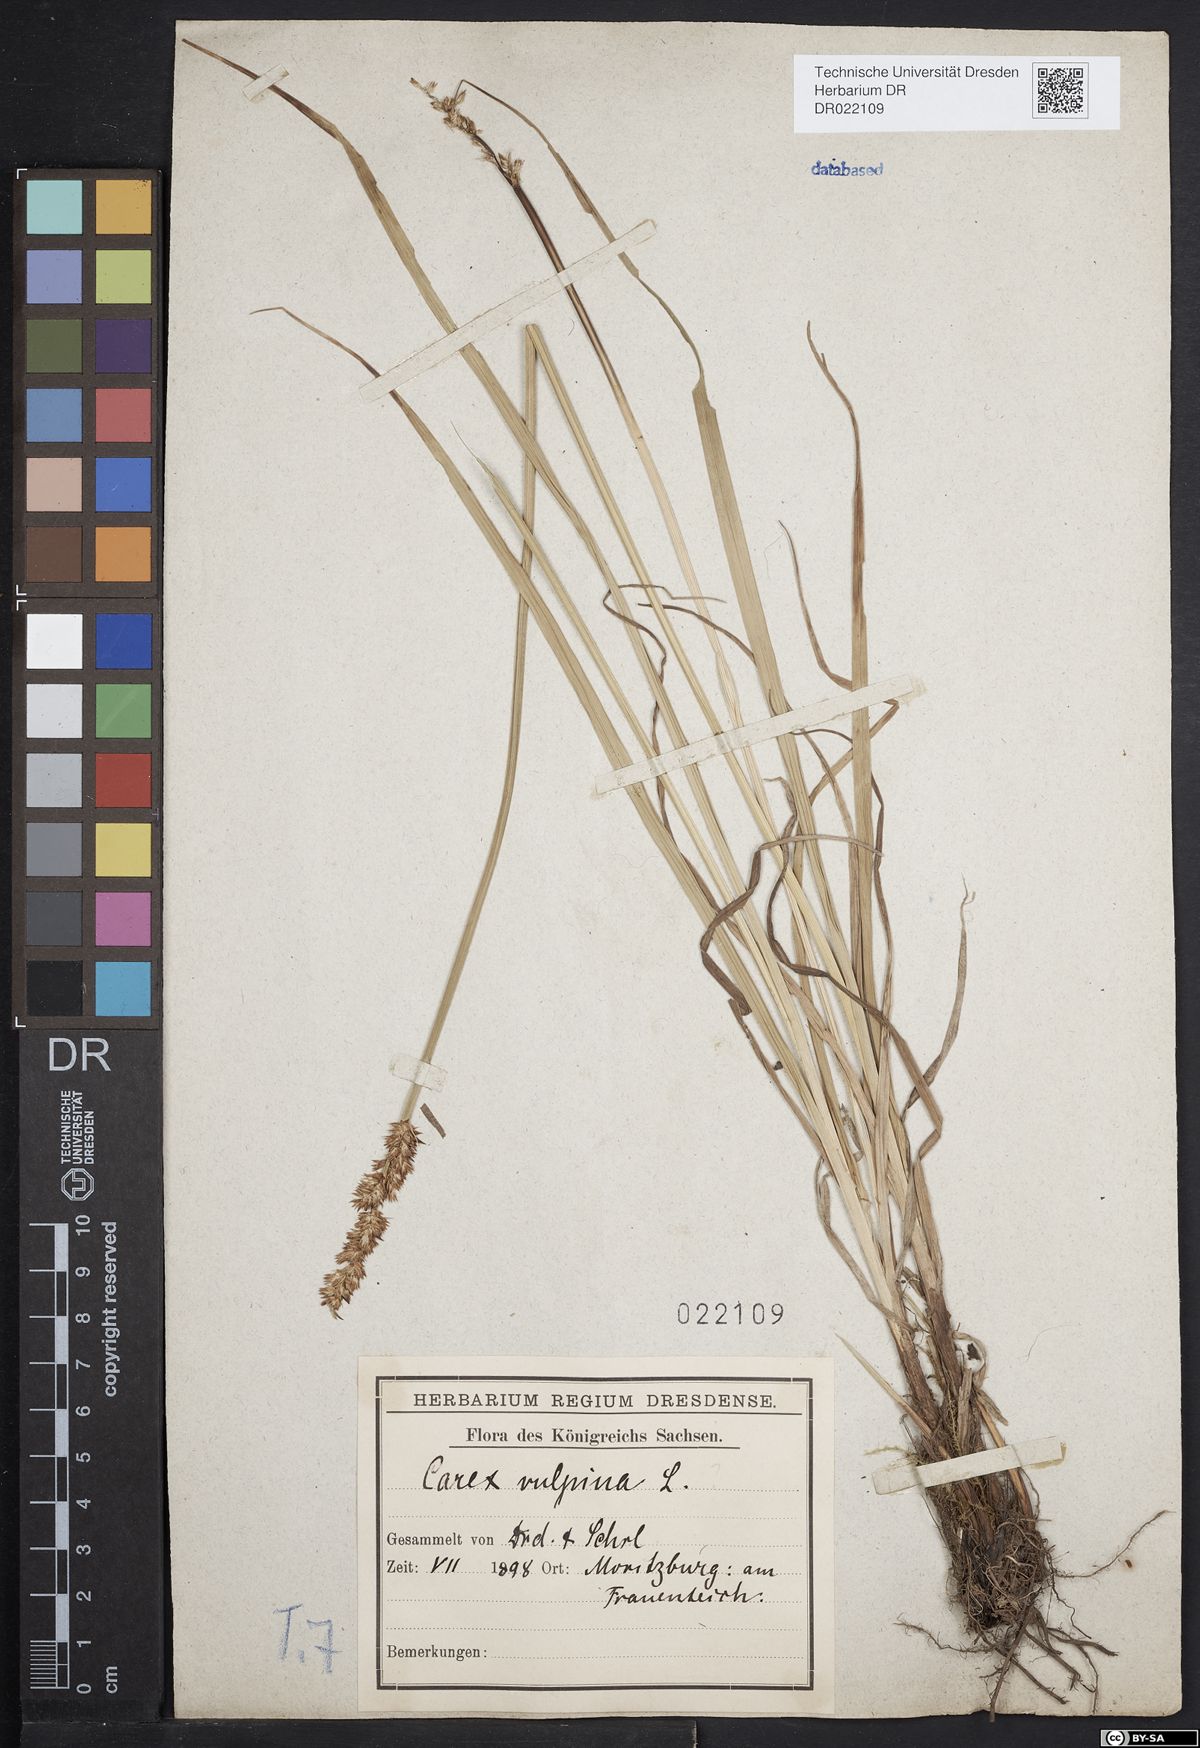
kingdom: Plantae
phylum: Tracheophyta
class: Liliopsida
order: Poales
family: Cyperaceae
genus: Carex
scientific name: Carex vulpina
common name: True fox-sedge
